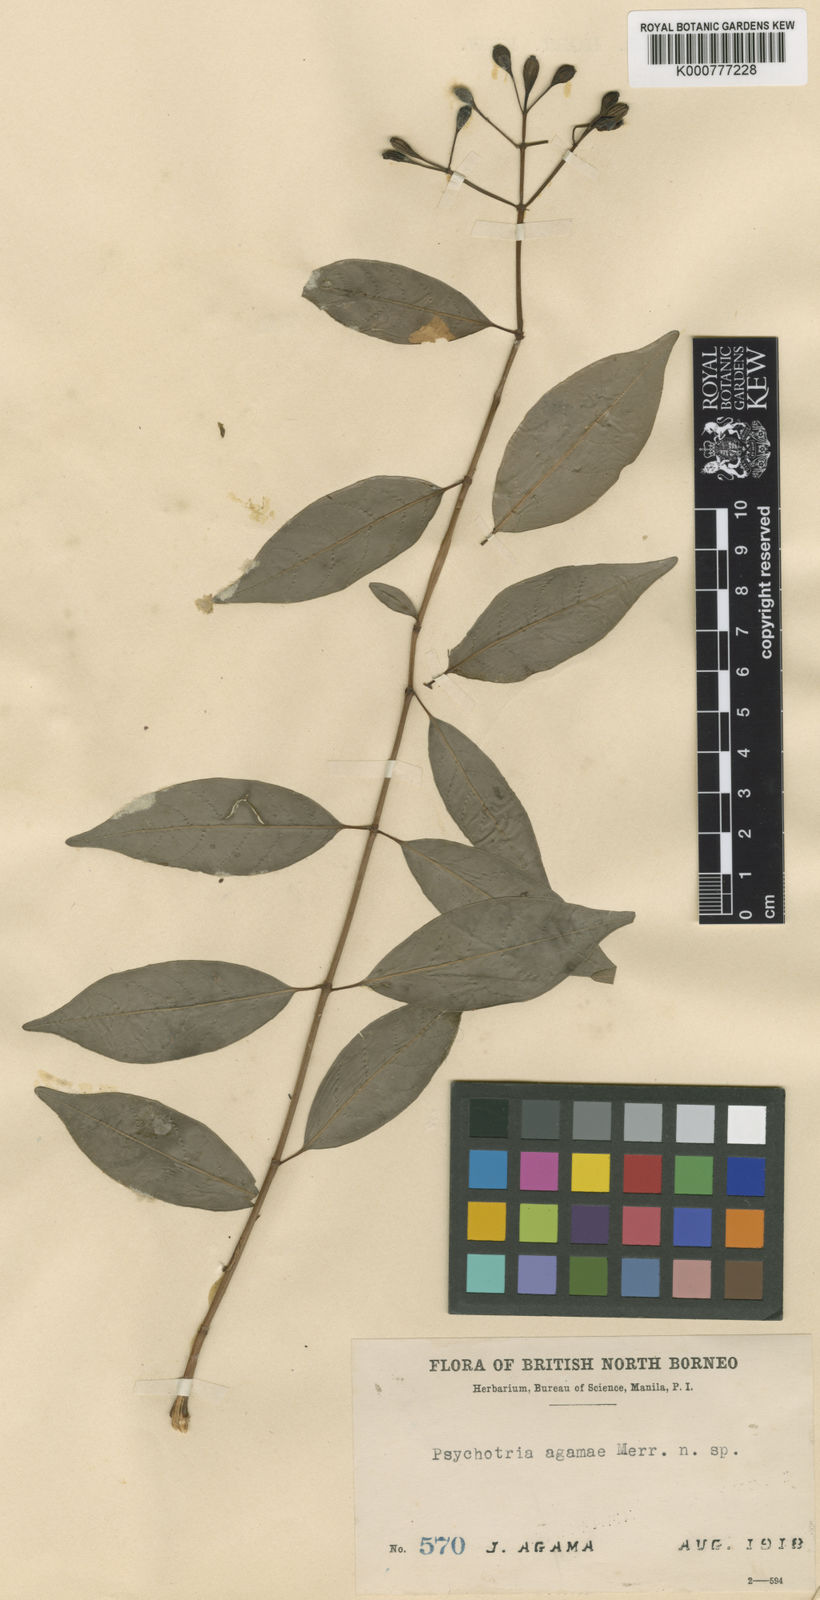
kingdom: Plantae
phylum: Tracheophyta
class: Magnoliopsida
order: Gentianales
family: Rubiaceae
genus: Psychotria
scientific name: Psychotria agamae
